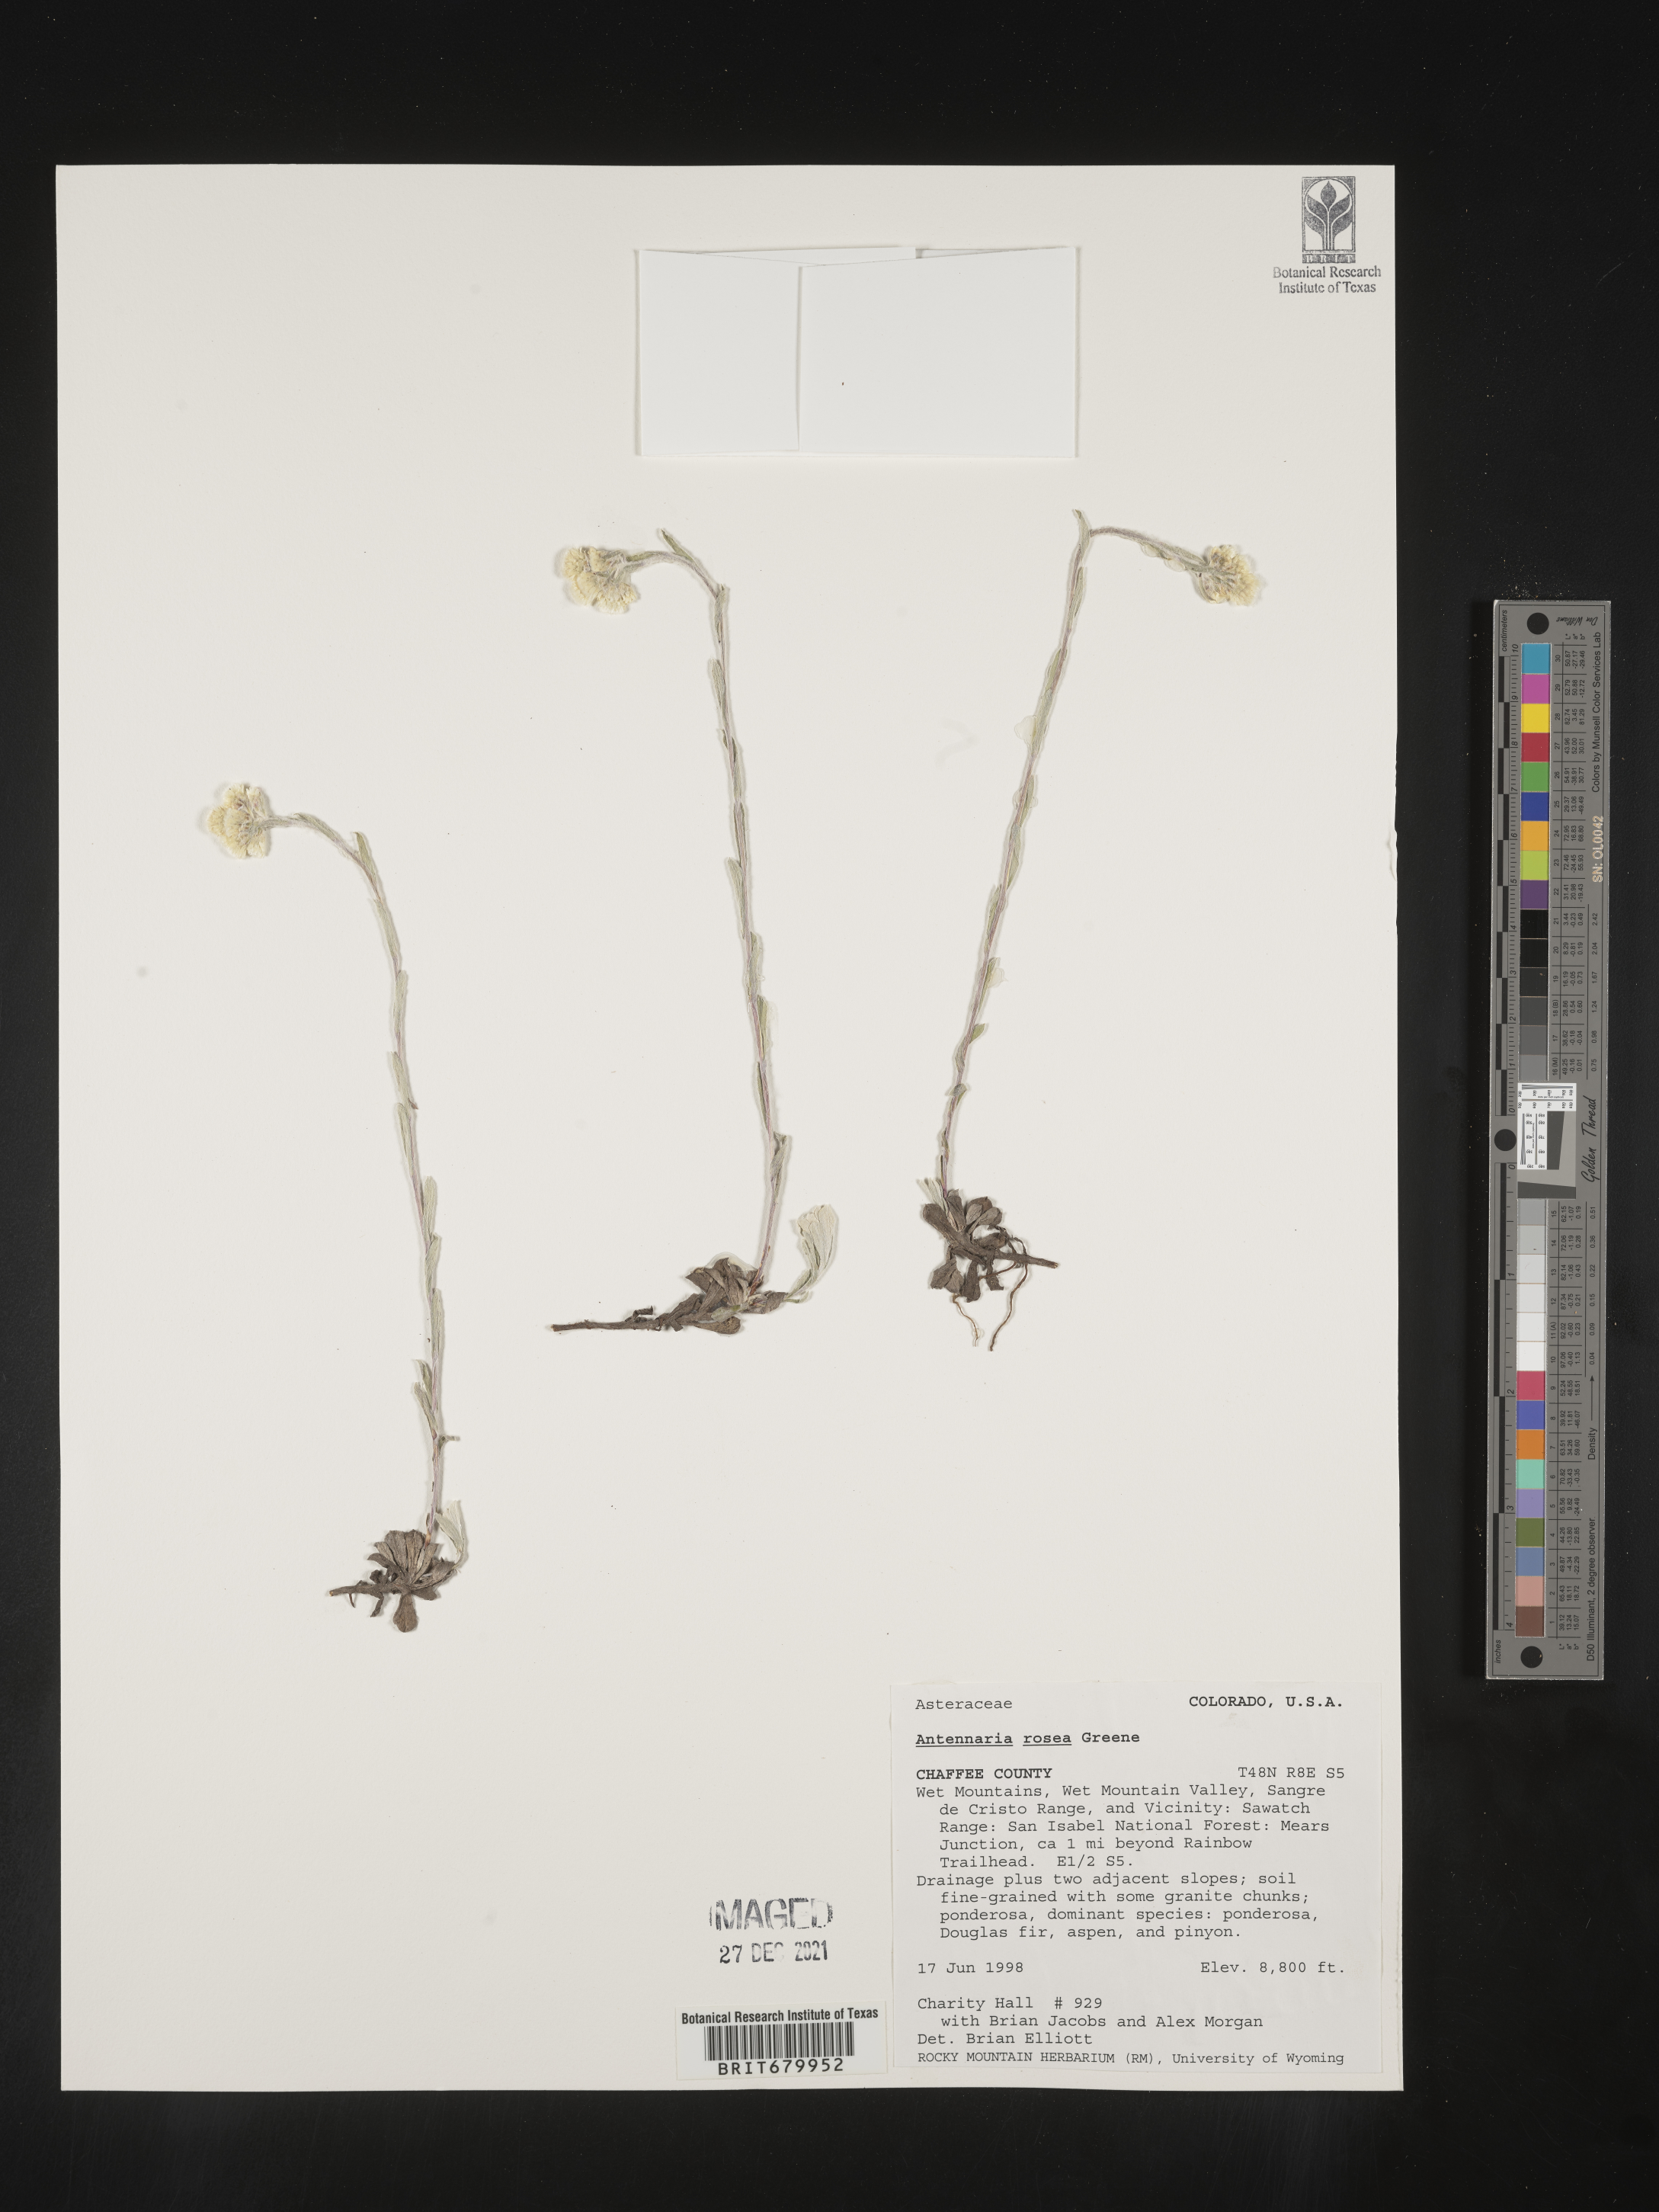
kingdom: Plantae
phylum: Tracheophyta
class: Magnoliopsida
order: Asterales
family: Asteraceae
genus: Antennaria
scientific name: Antennaria rosea
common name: Rosy pussytoes
